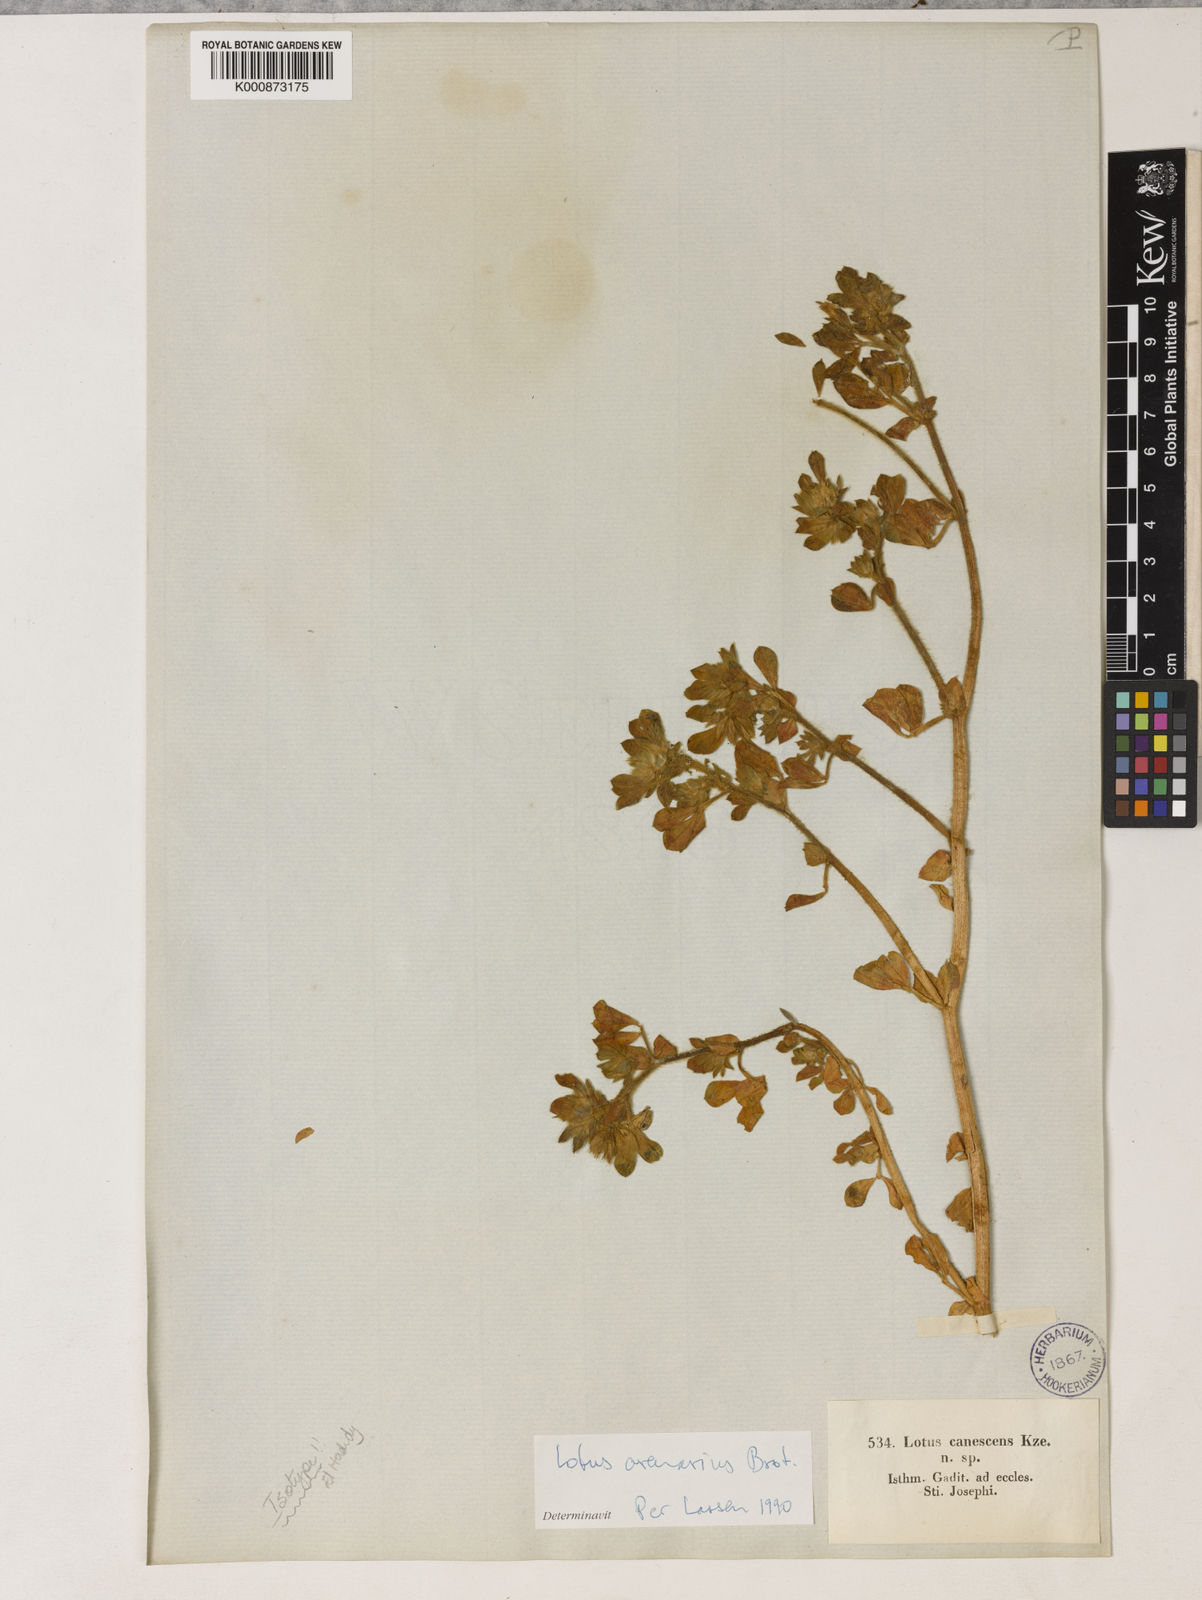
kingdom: Plantae
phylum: Tracheophyta
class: Magnoliopsida
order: Fabales
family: Fabaceae
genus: Lotus
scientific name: Lotus arenarius
